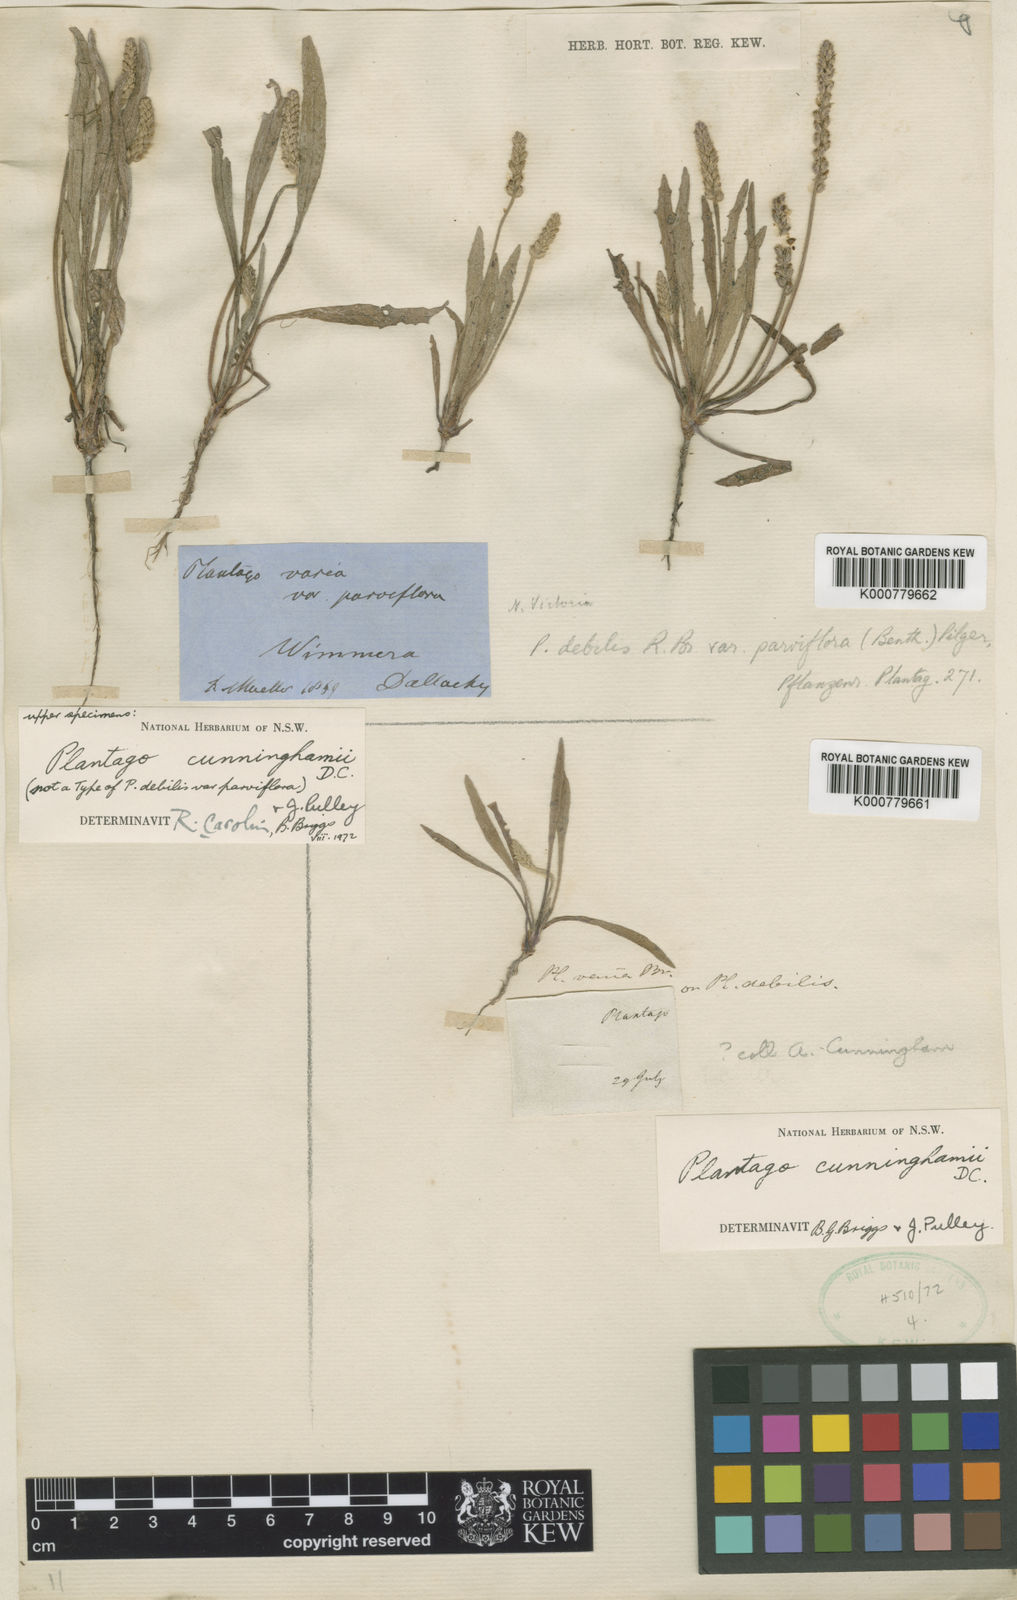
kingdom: Plantae
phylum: Tracheophyta
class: Magnoliopsida
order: Lamiales
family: Plantaginaceae
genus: Plantago
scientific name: Plantago cunninghamii
